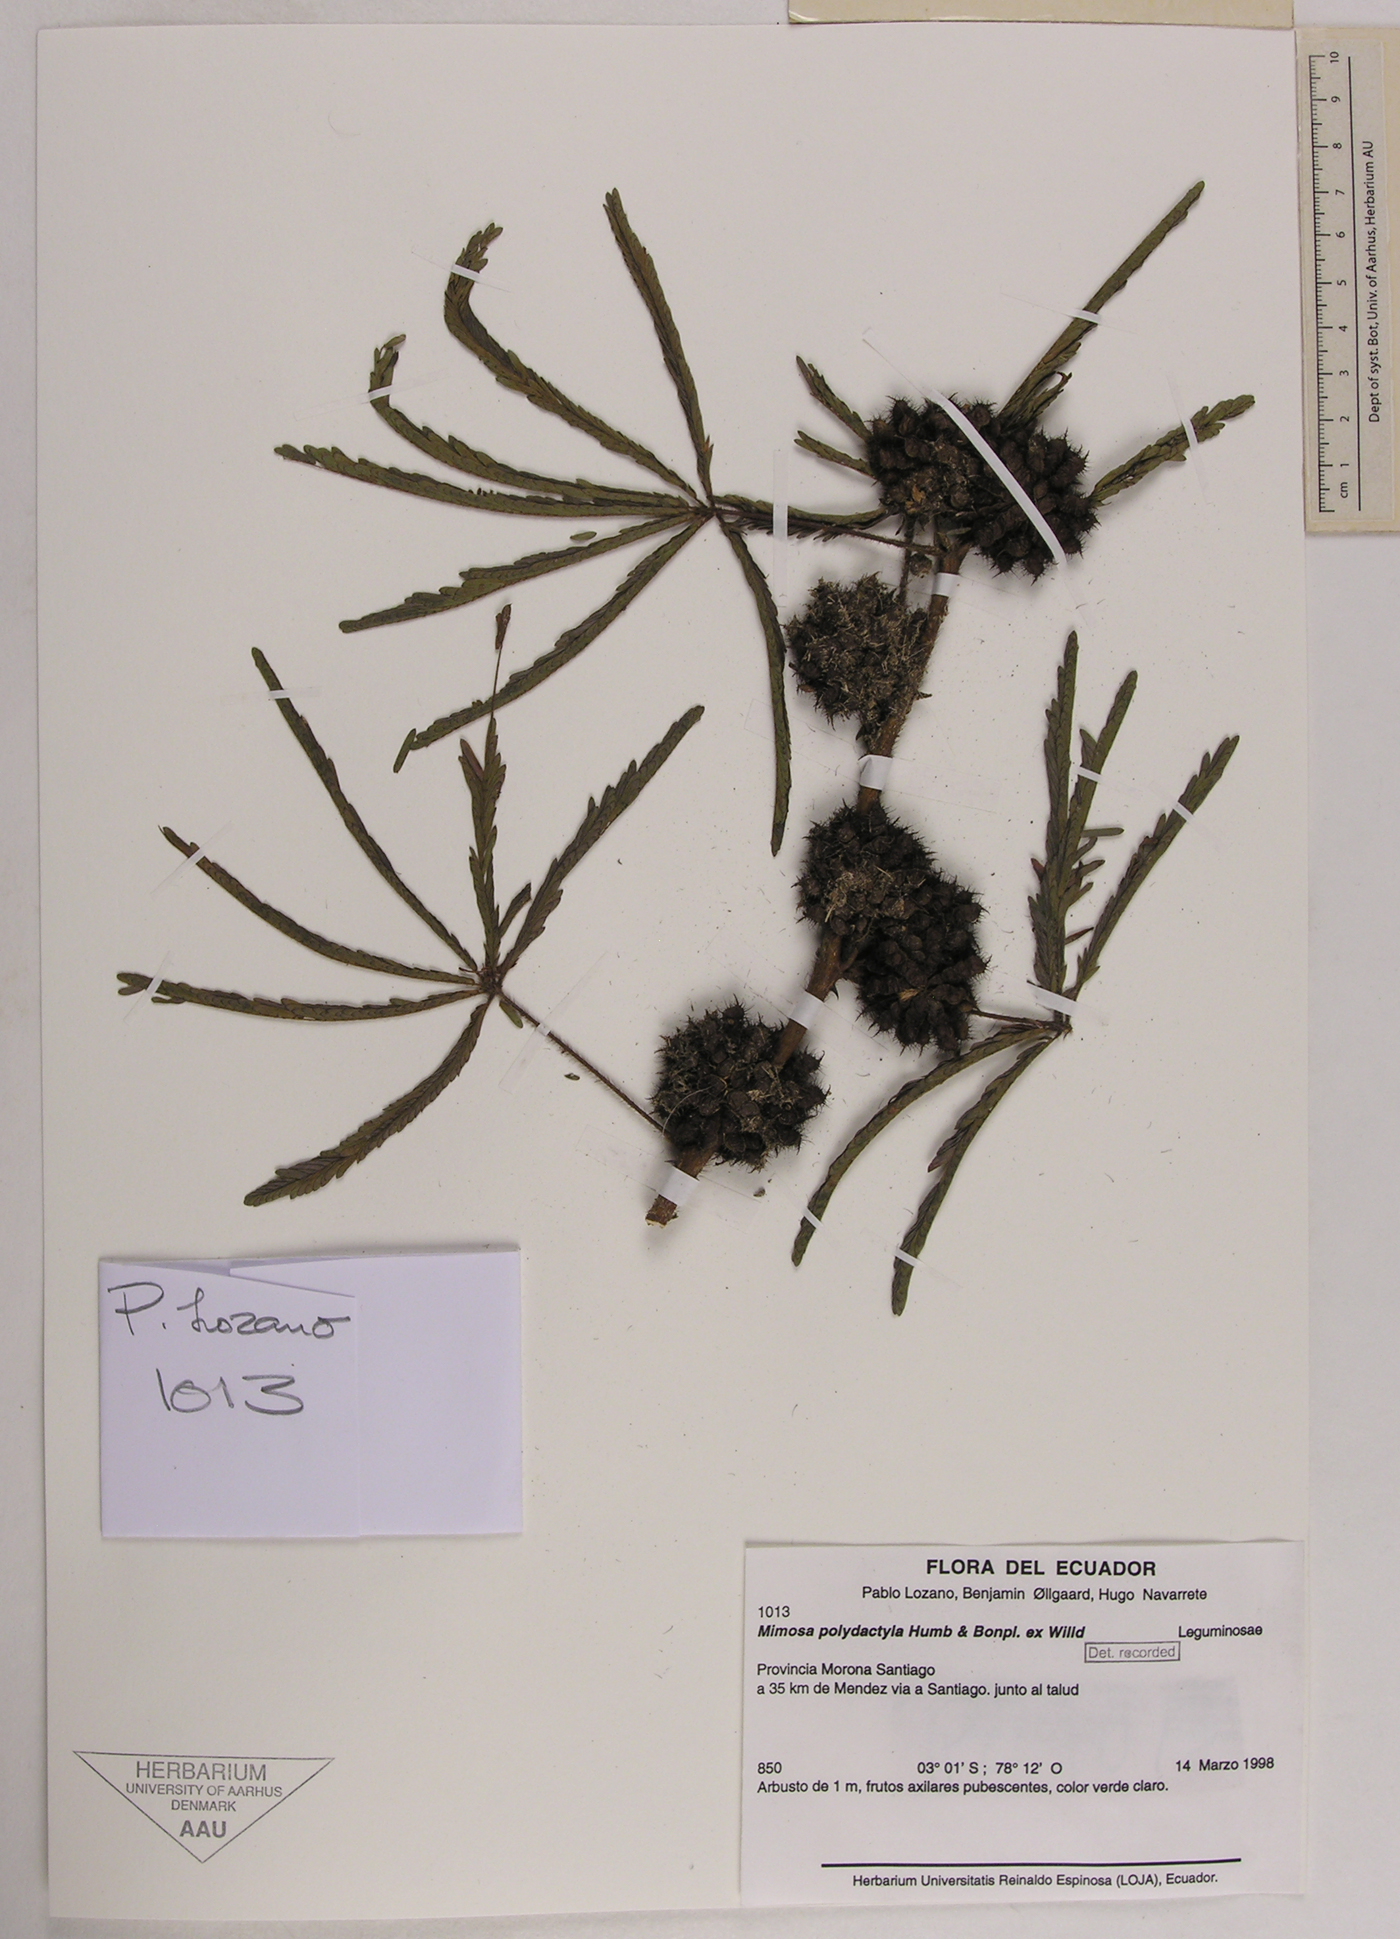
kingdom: Plantae
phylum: Tracheophyta
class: Magnoliopsida
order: Fabales
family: Fabaceae
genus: Mimosa
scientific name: Mimosa polydactyla
